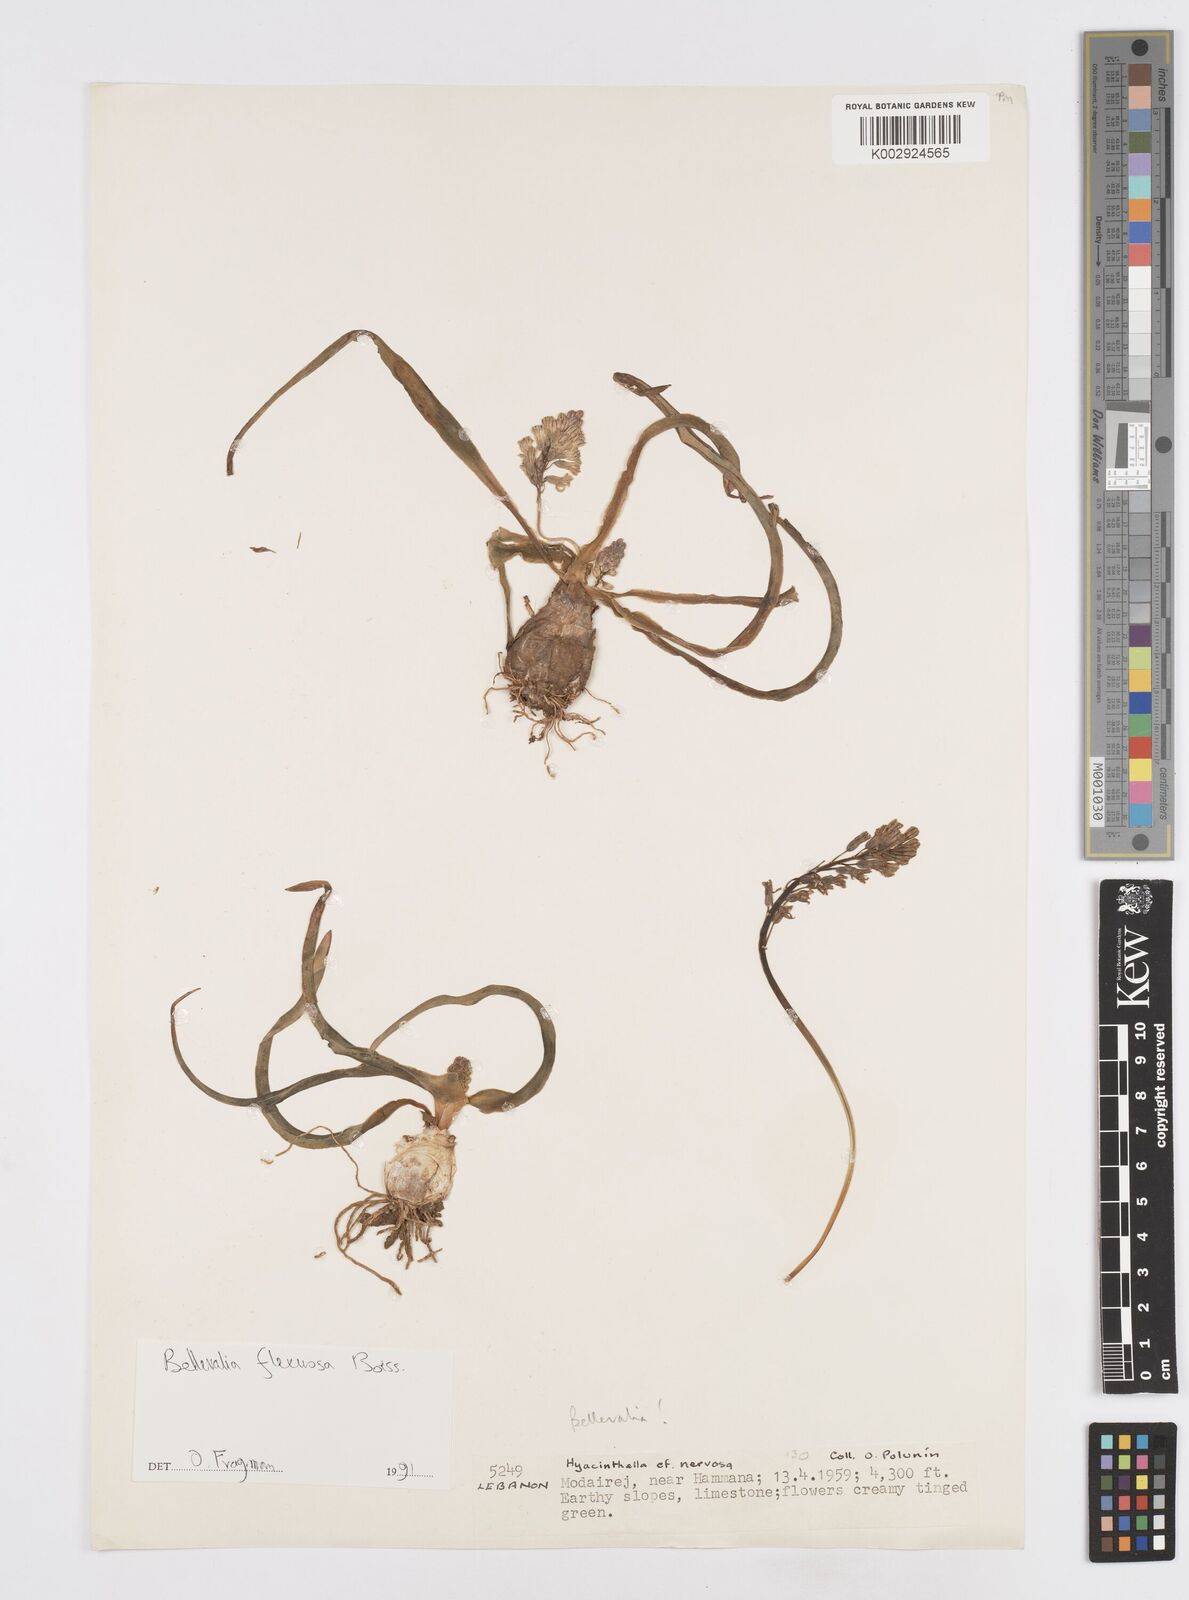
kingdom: Plantae
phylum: Tracheophyta
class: Liliopsida
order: Asparagales
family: Asparagaceae
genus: Bellevalia
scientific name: Bellevalia flexuosa
